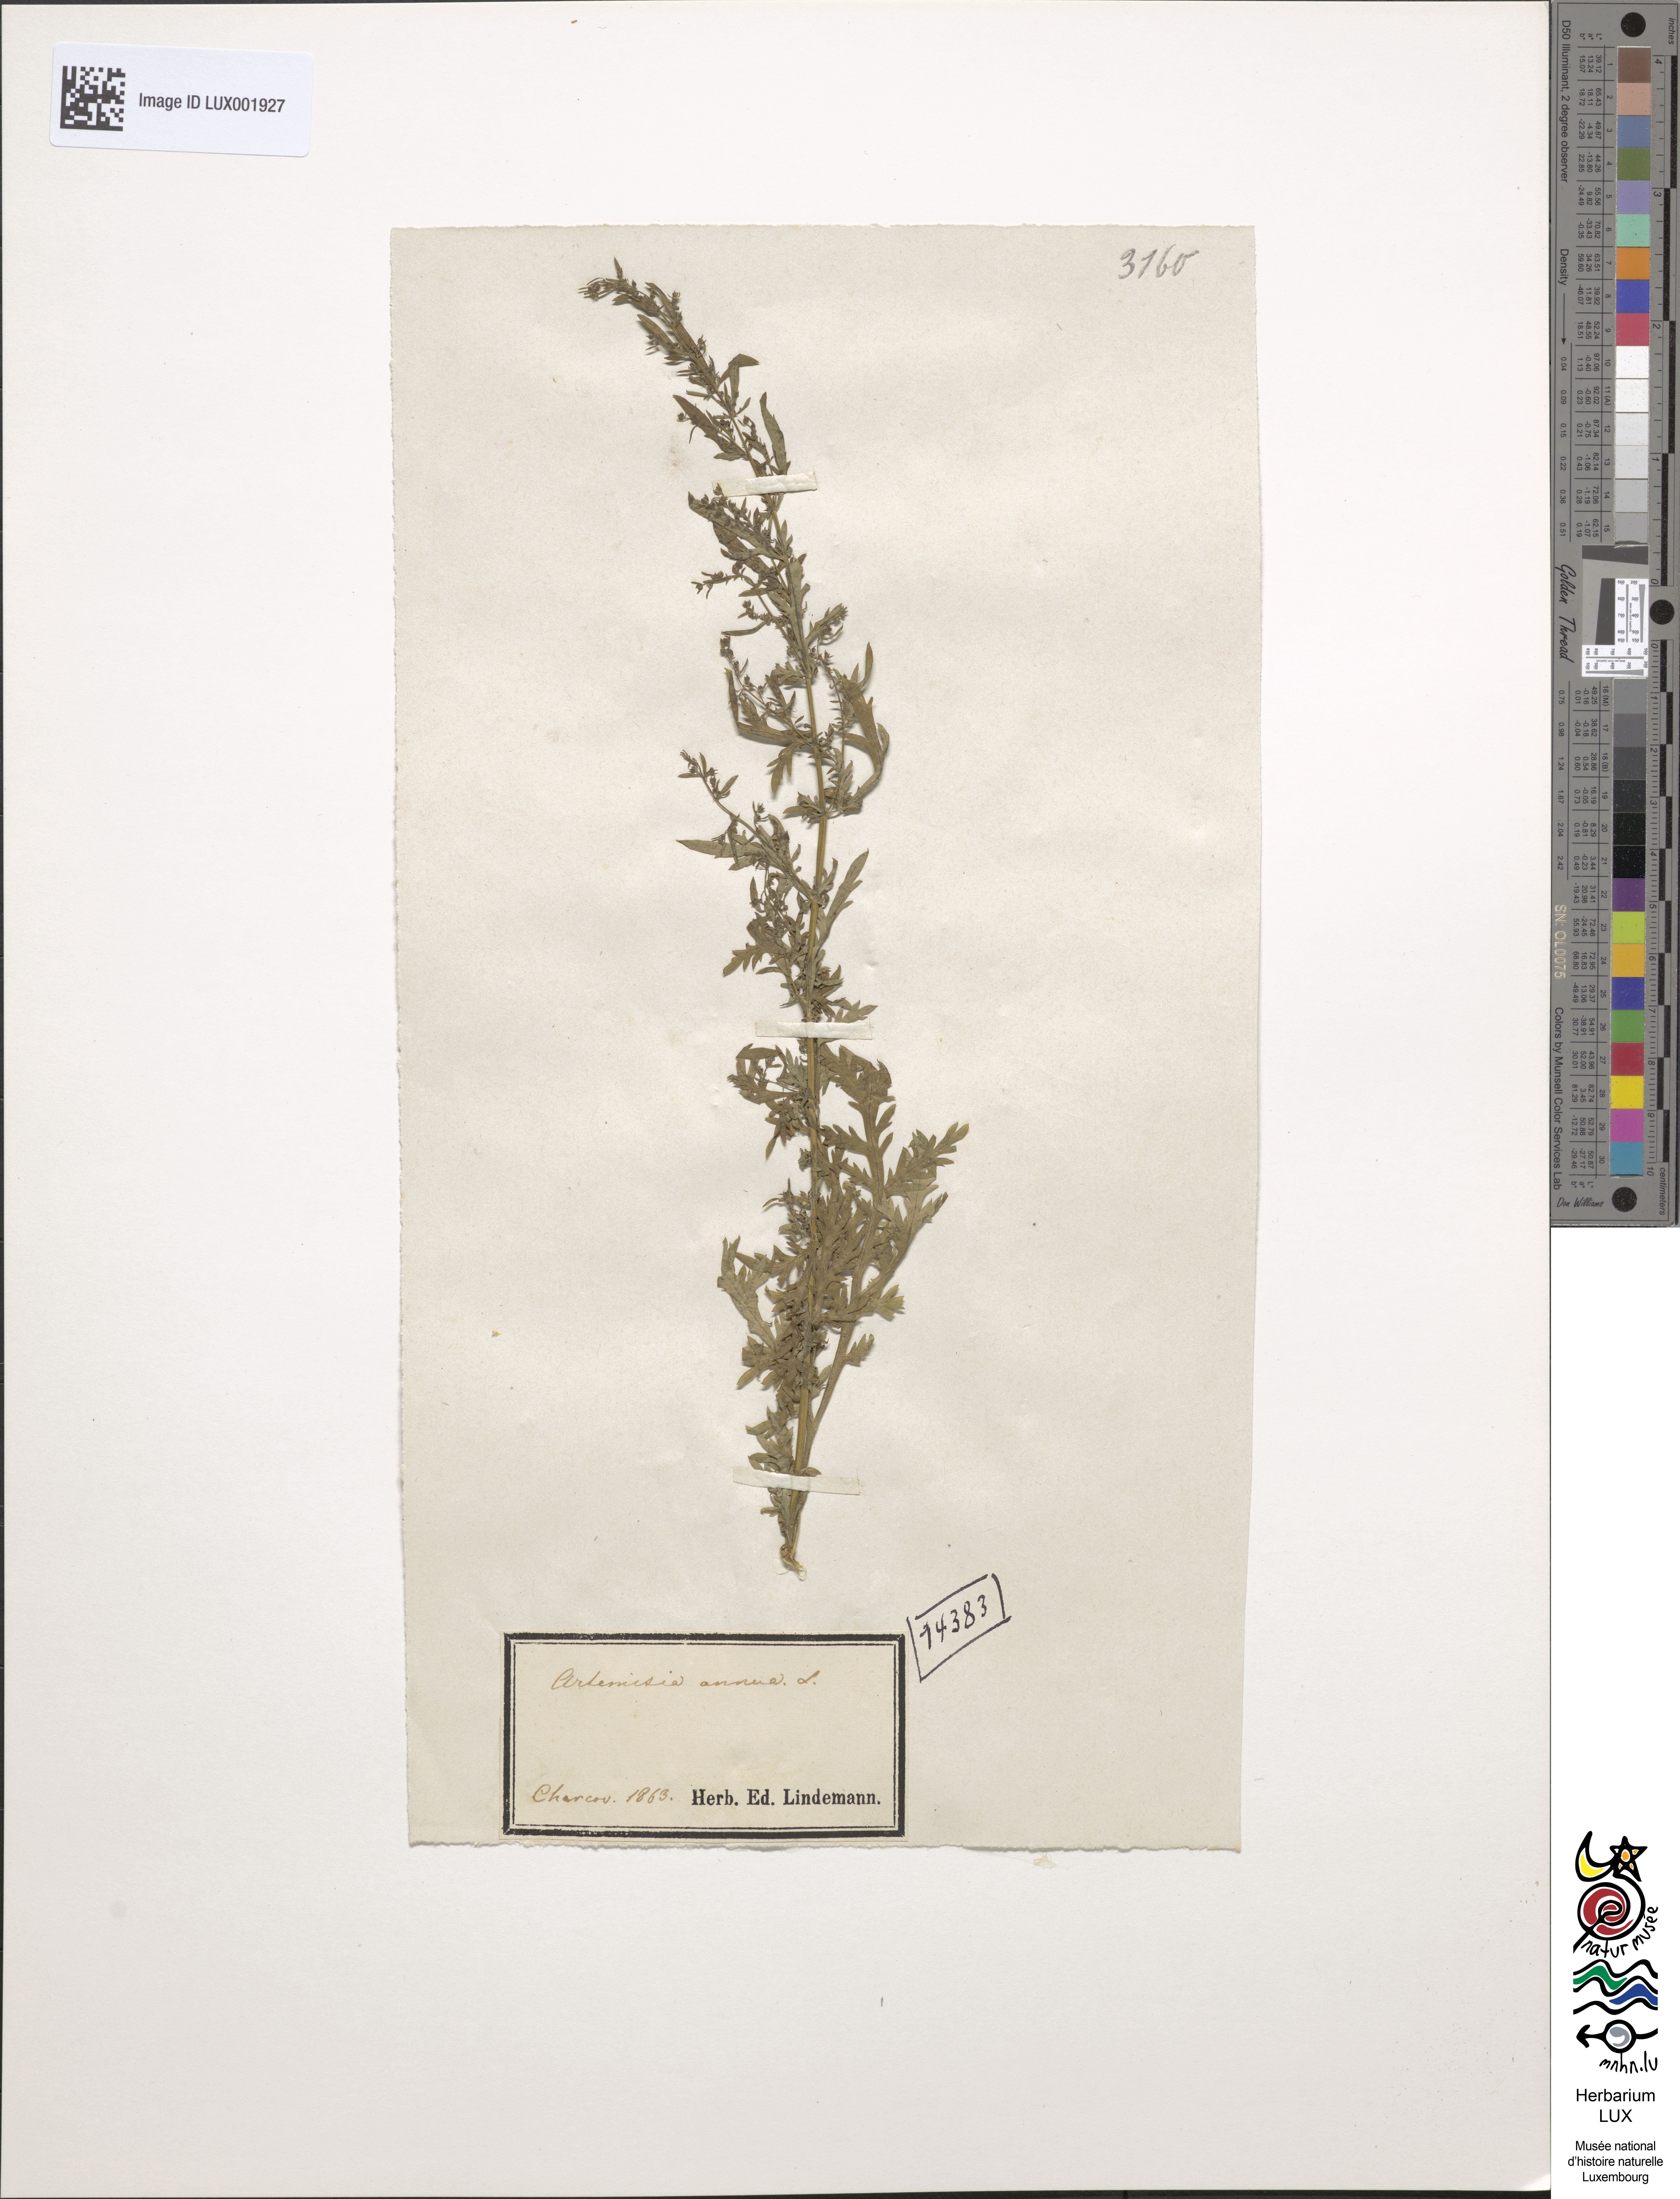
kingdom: Plantae
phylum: Tracheophyta
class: Magnoliopsida
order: Asterales
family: Asteraceae
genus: Artemisia
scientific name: Artemisia annua
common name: Sweet sagewort
